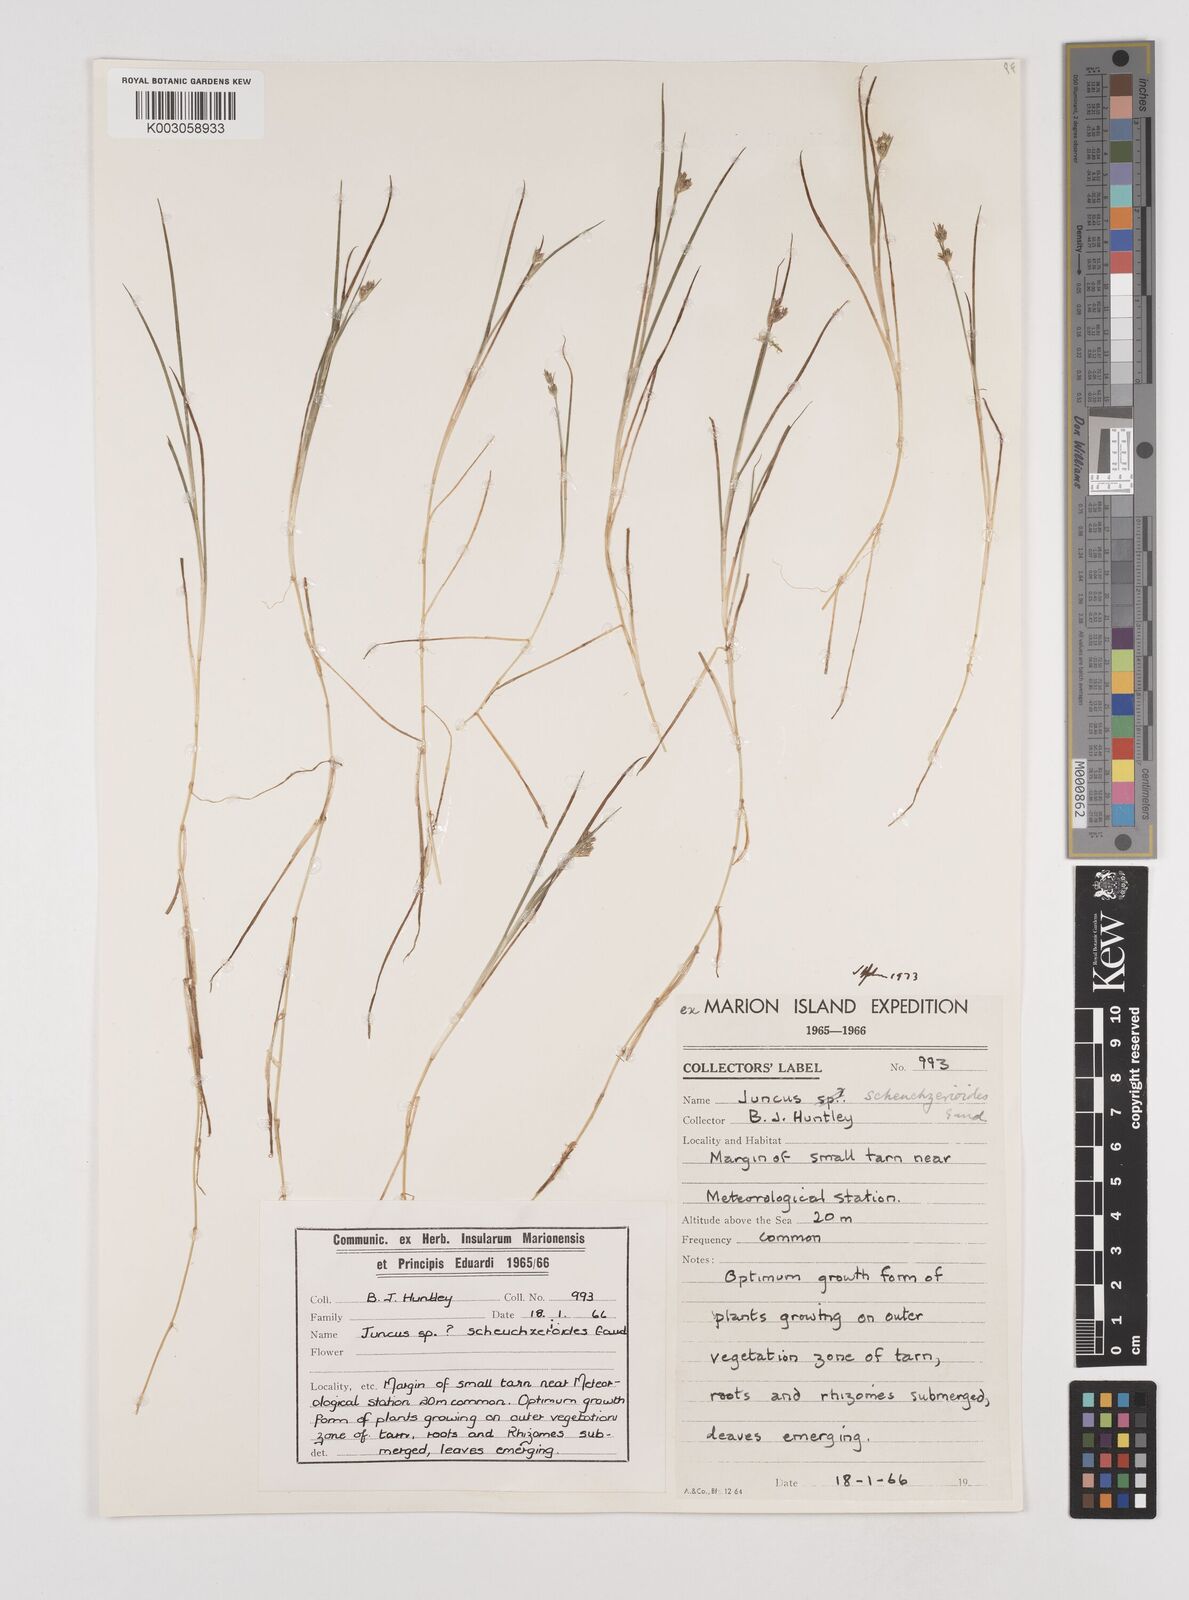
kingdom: Plantae
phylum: Tracheophyta
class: Liliopsida
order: Poales
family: Juncaceae
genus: Juncus
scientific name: Juncus scheuchzerioides
